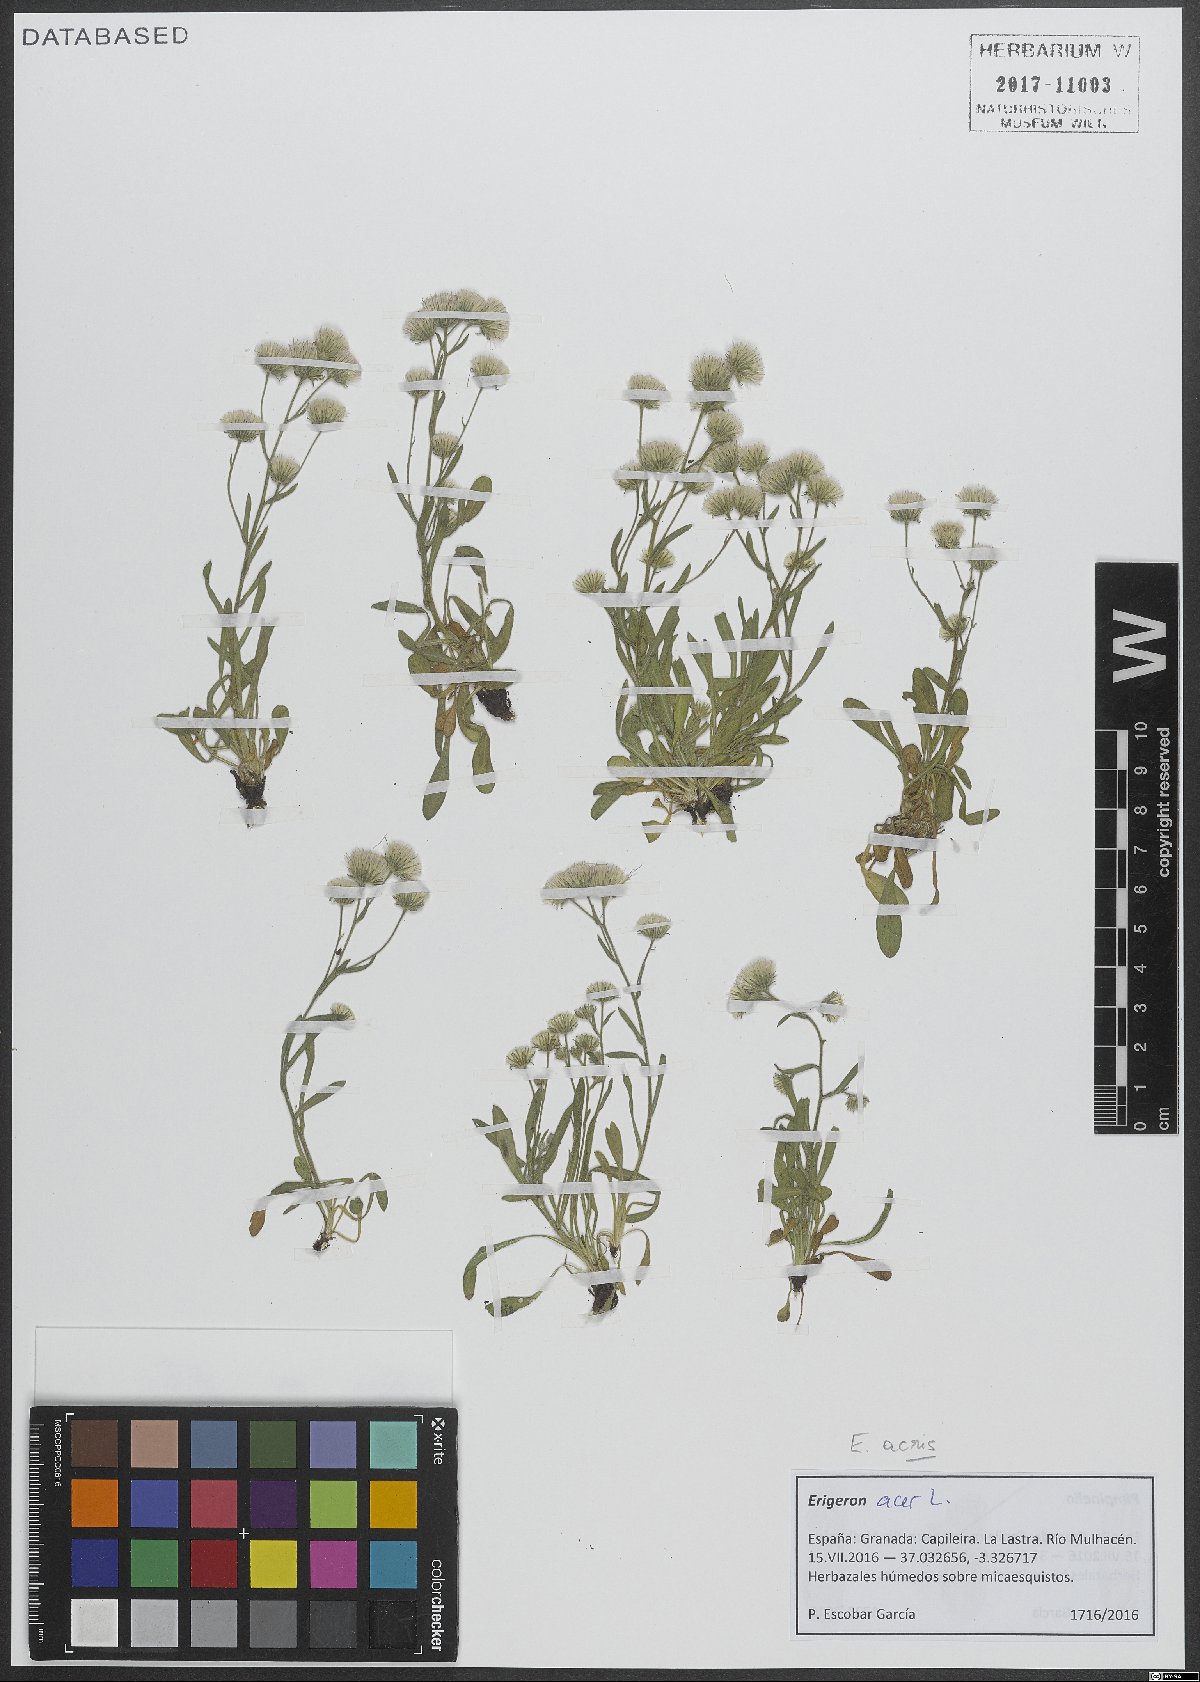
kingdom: Plantae
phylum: Tracheophyta
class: Magnoliopsida
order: Asterales
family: Asteraceae
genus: Erigeron
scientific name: Erigeron acris
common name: Blue fleabane
